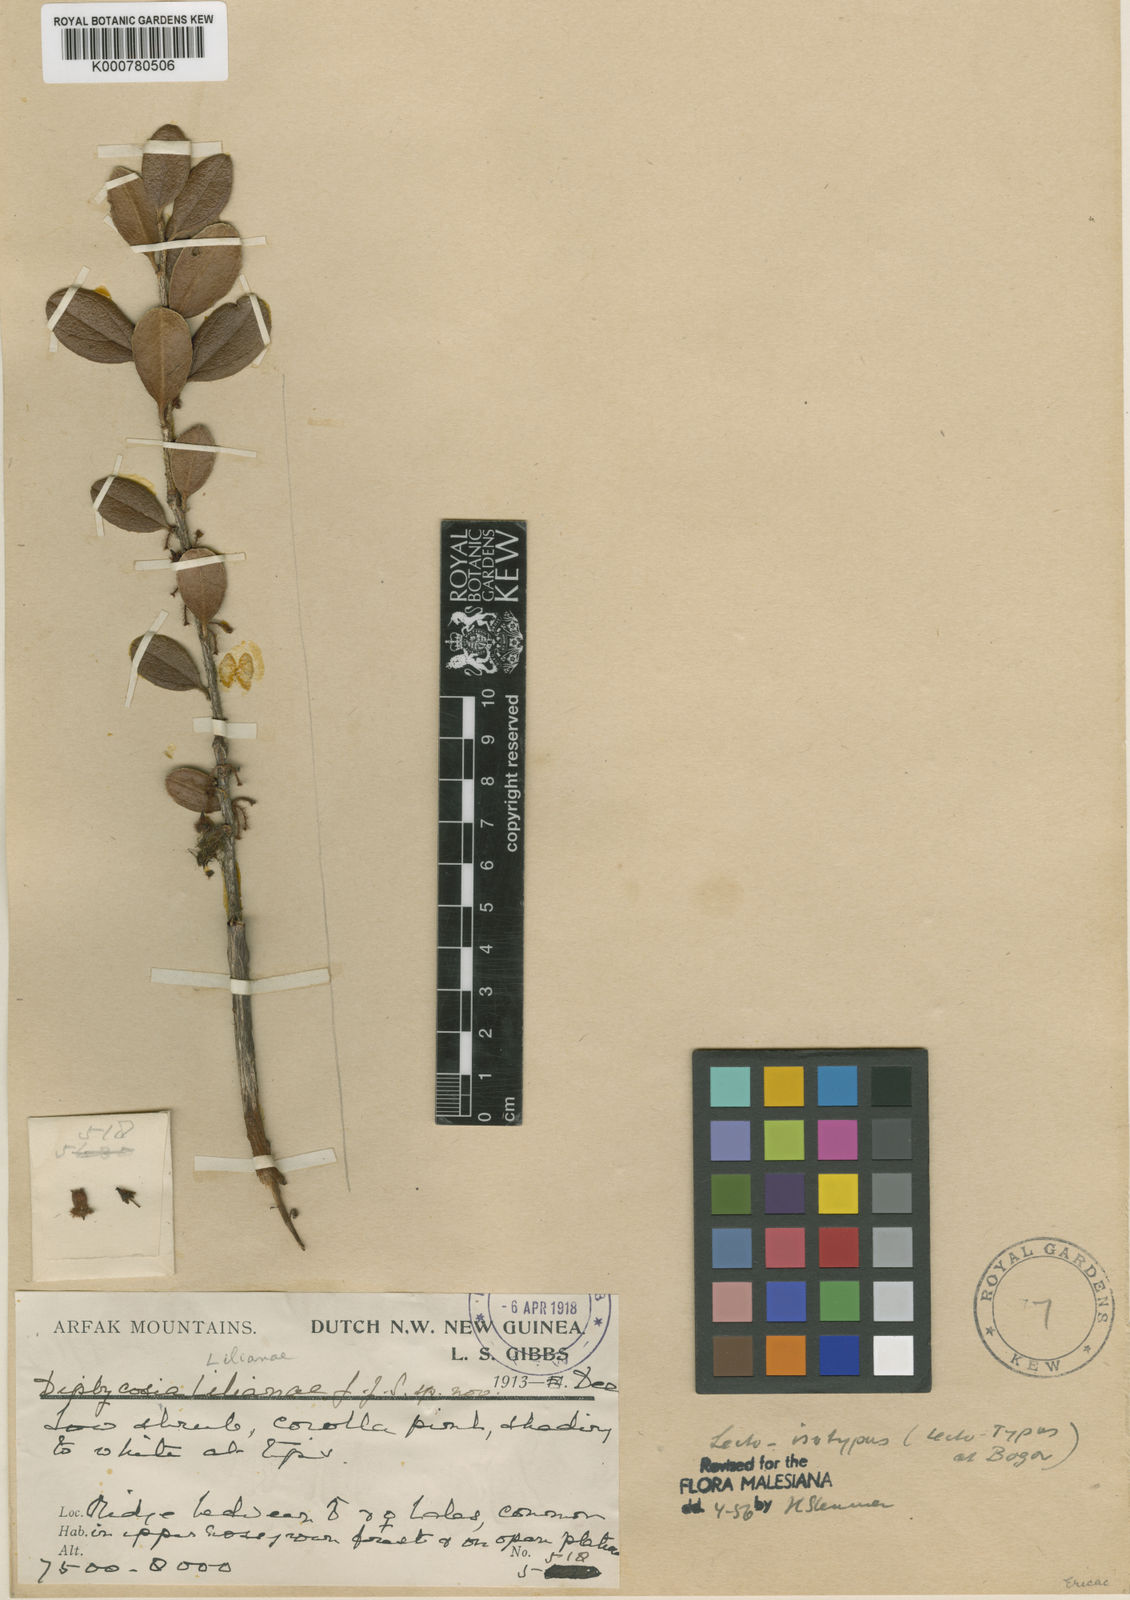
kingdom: Plantae
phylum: Tracheophyta
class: Magnoliopsida
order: Ericales
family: Ericaceae
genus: Gaultheria
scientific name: Gaultheria lilianae
